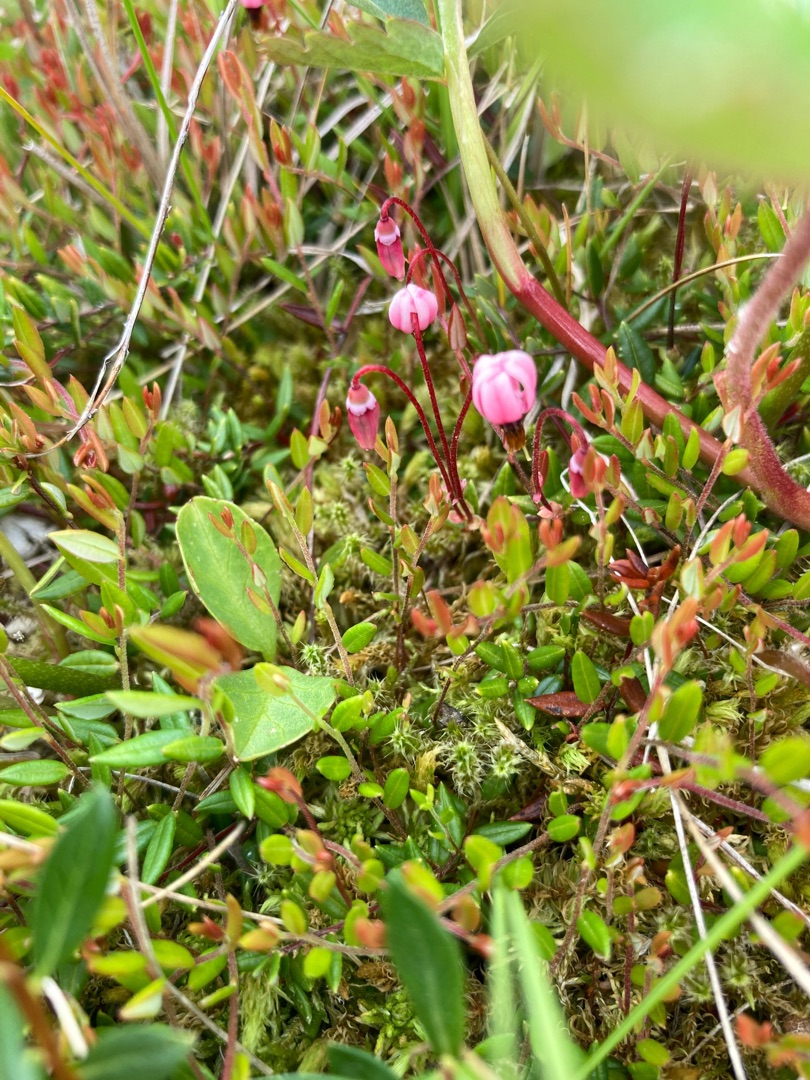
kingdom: Plantae
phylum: Tracheophyta
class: Magnoliopsida
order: Ericales
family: Ericaceae
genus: Vaccinium
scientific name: Vaccinium oxycoccos
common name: Tranebær
